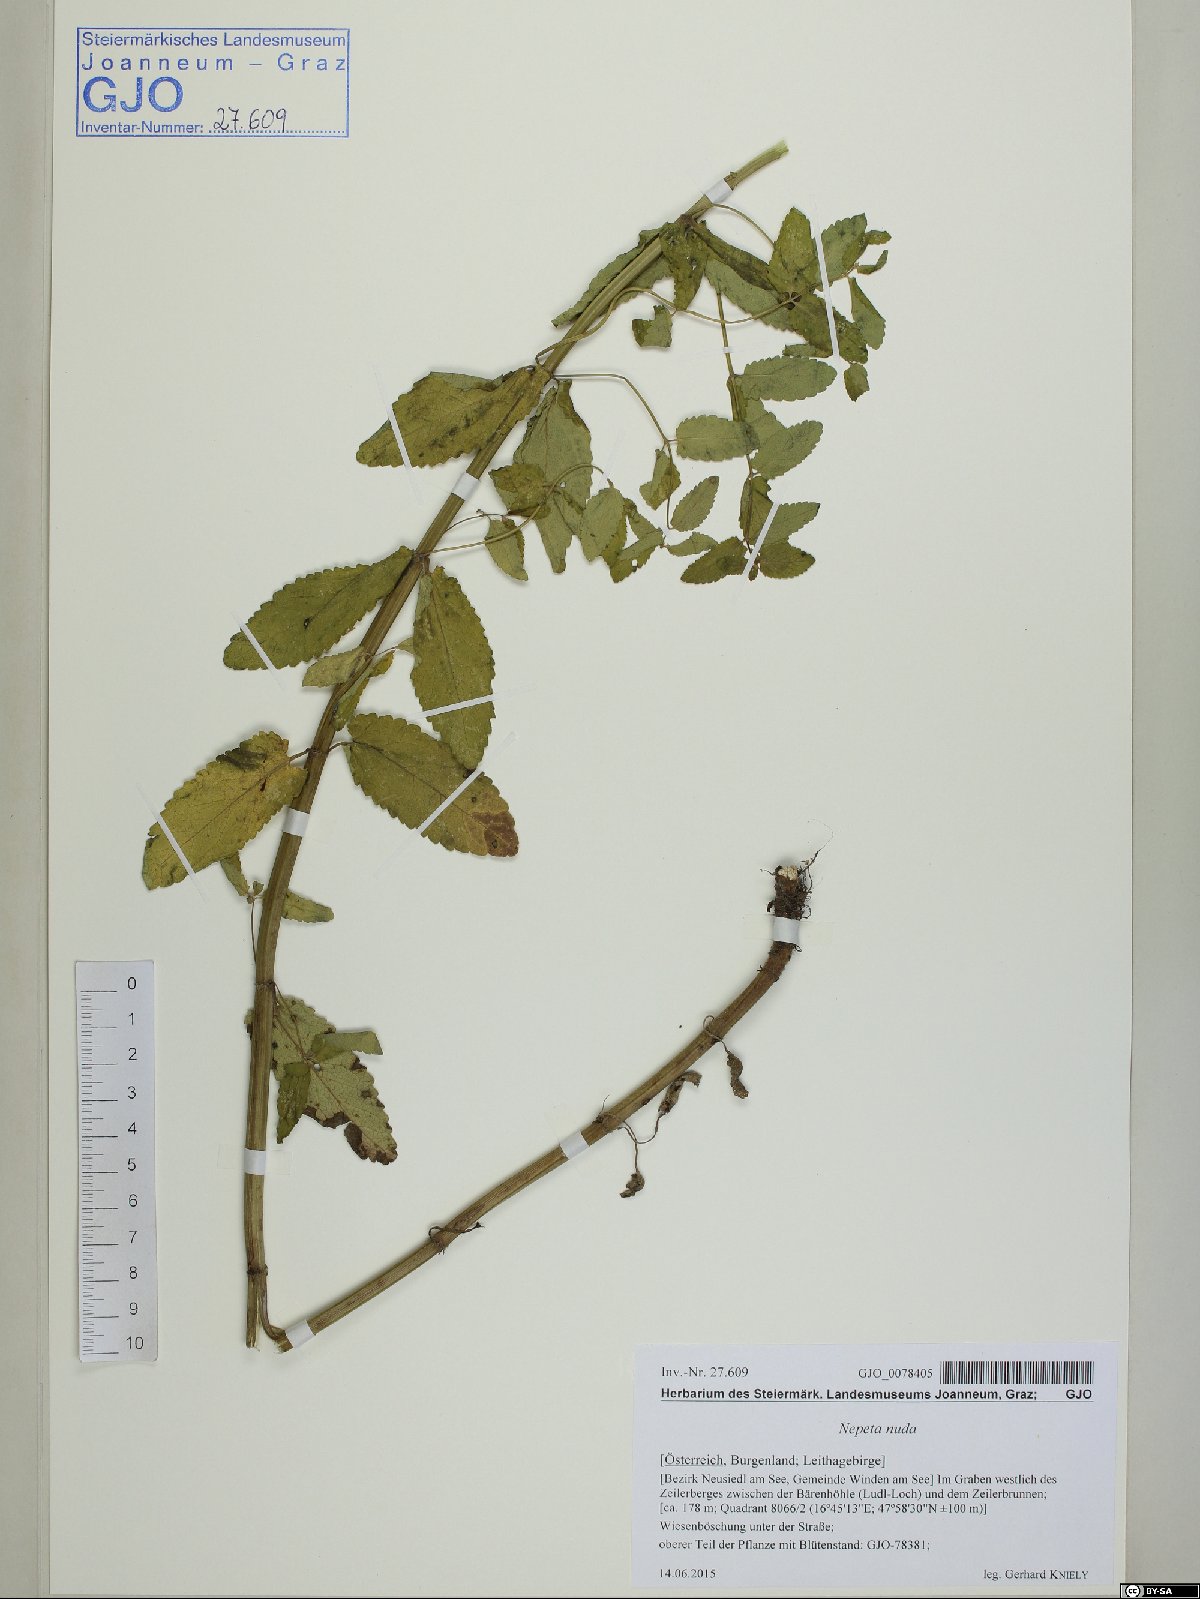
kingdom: Plantae
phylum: Tracheophyta
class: Magnoliopsida
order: Lamiales
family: Lamiaceae
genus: Nepeta
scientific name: Nepeta nuda
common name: Hairless catmint
